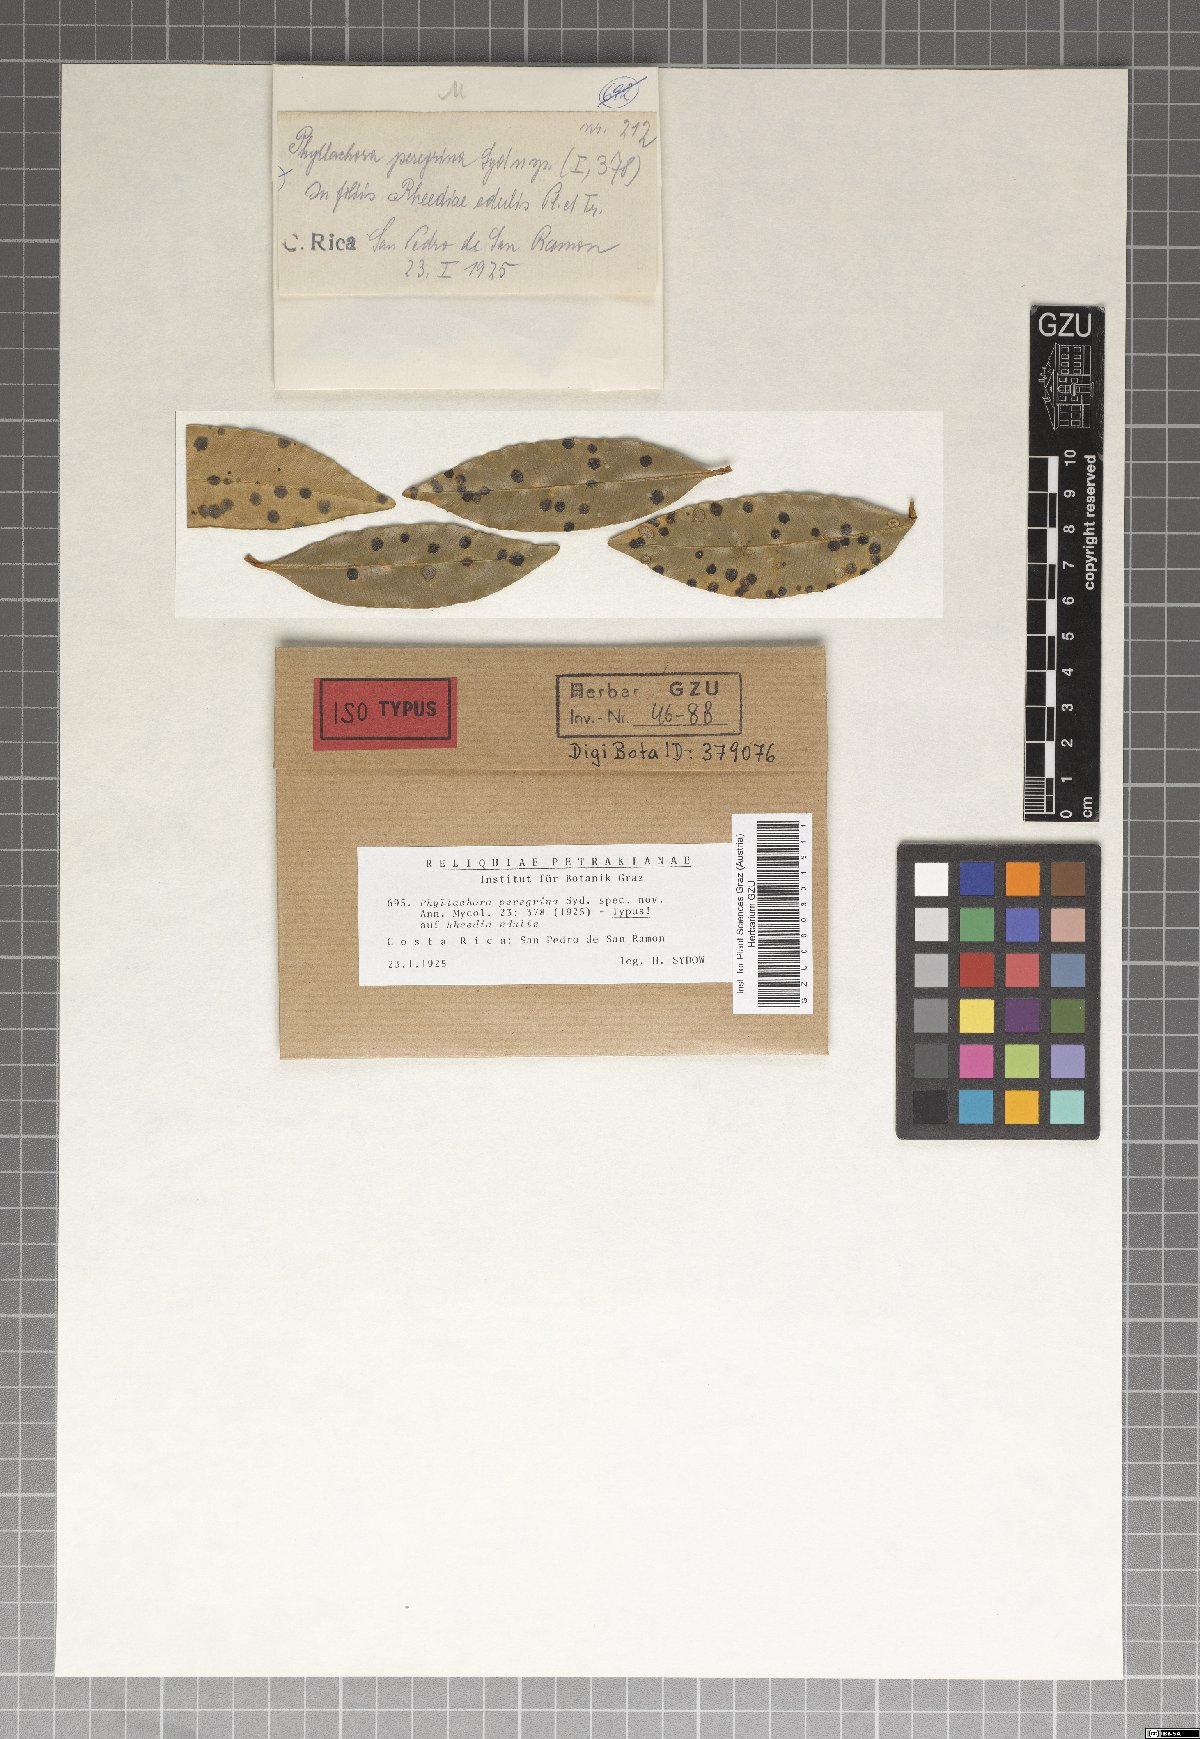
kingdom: Fungi
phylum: Ascomycota
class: Sordariomycetes
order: Phyllachorales
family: Phyllachoraceae
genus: Phyllachora
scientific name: Phyllachora peregrina
